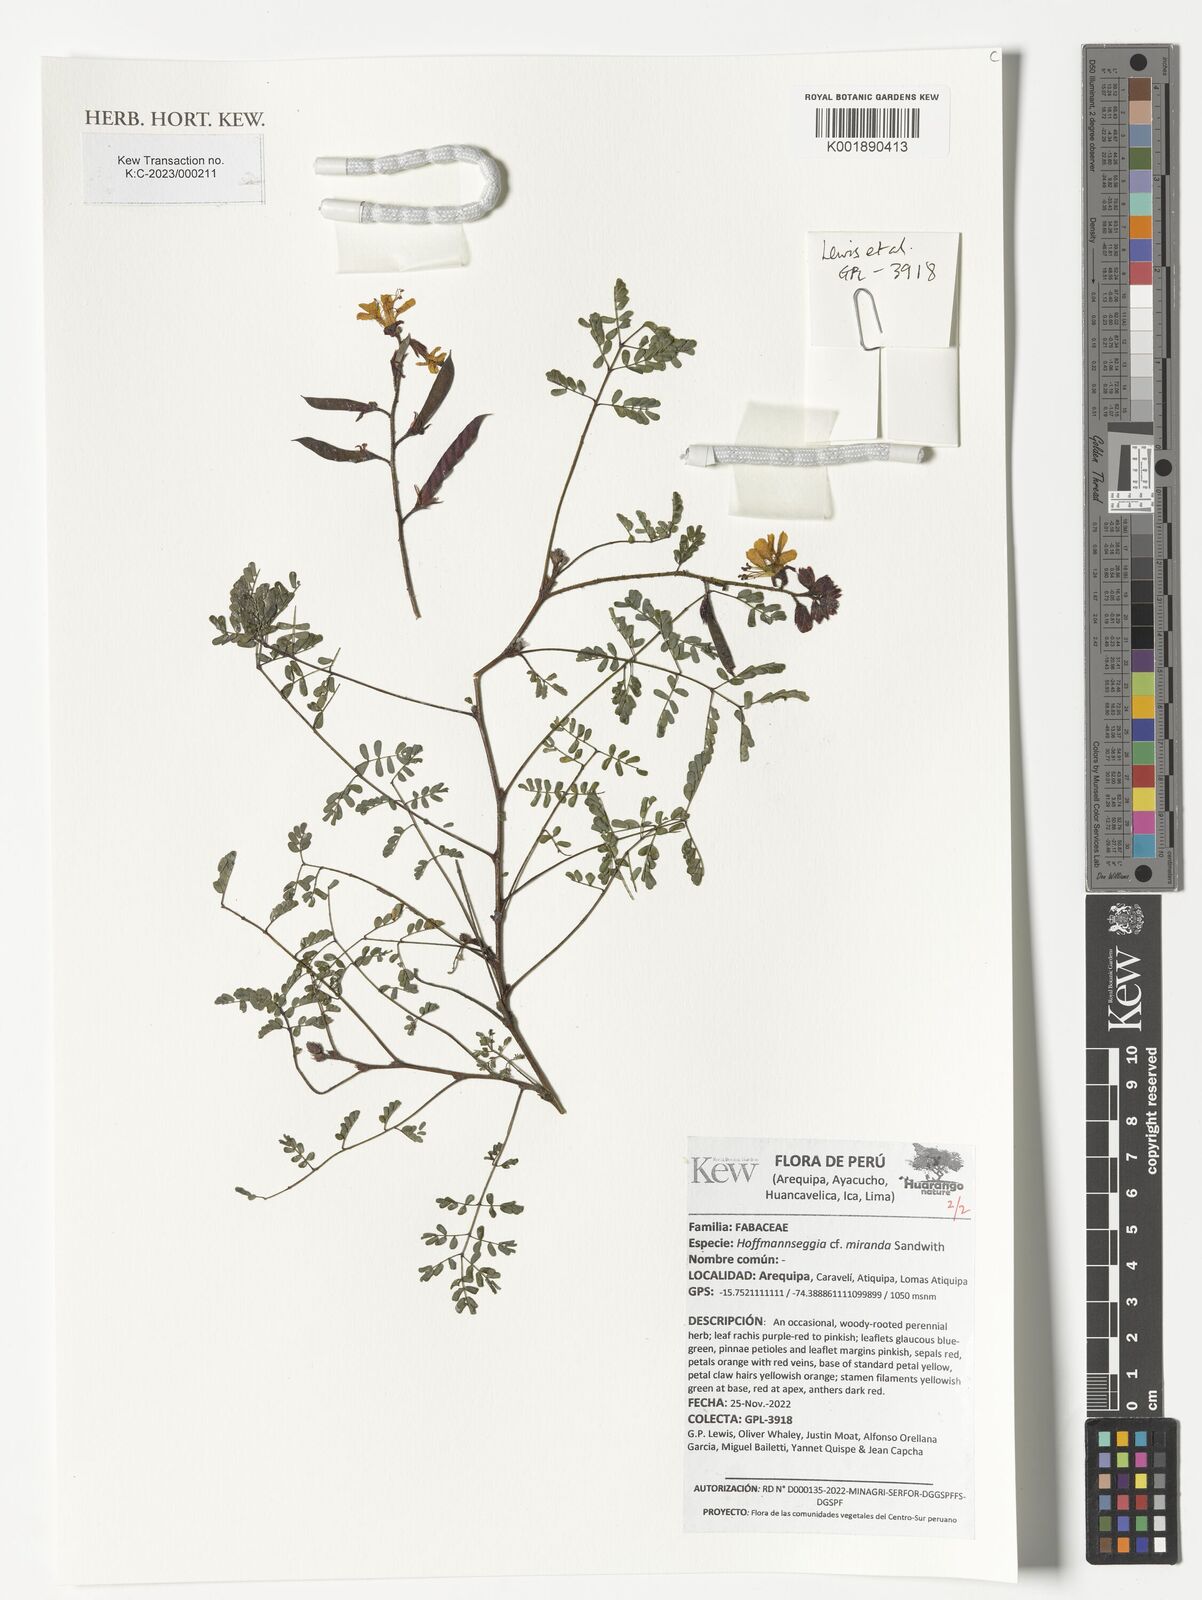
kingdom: Plantae
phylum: Tracheophyta
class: Magnoliopsida
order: Fabales
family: Fabaceae
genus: Hoffmannseggia
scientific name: Hoffmannseggia miranda
